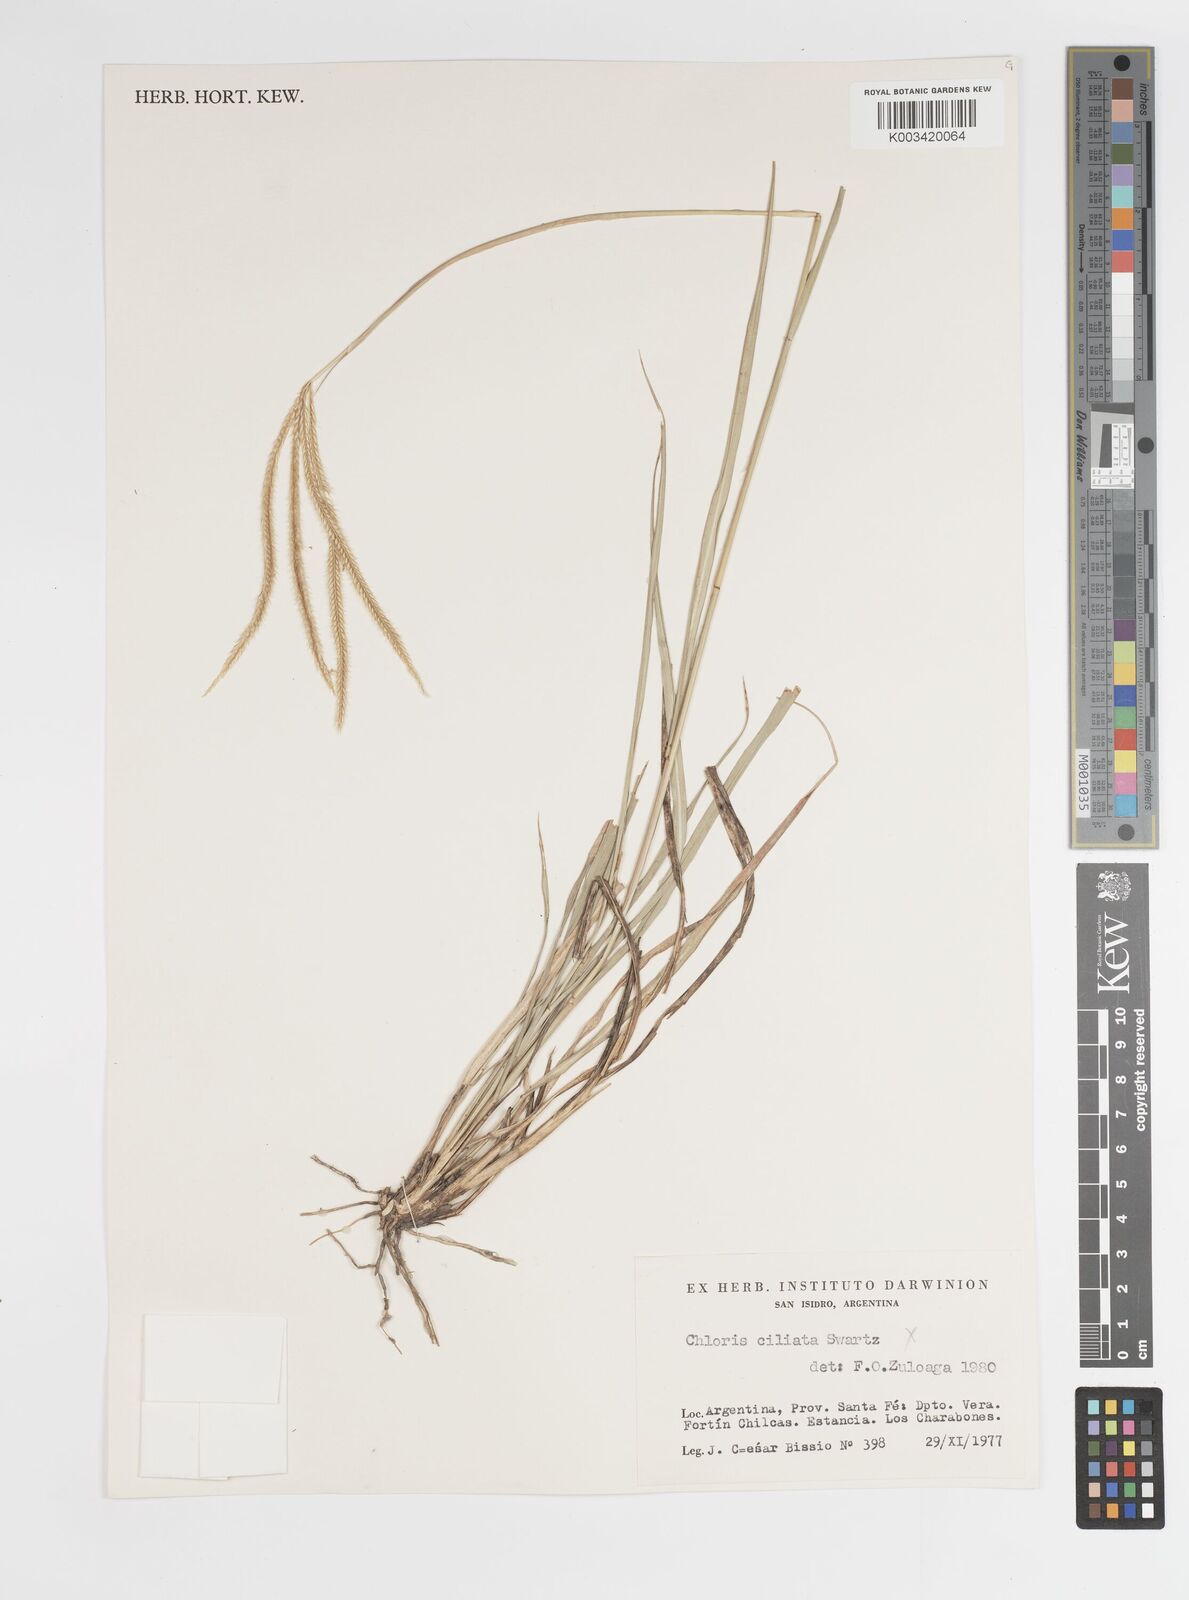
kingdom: Plantae
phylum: Tracheophyta
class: Liliopsida
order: Poales
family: Poaceae
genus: Stapfochloa
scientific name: Stapfochloa canterae
